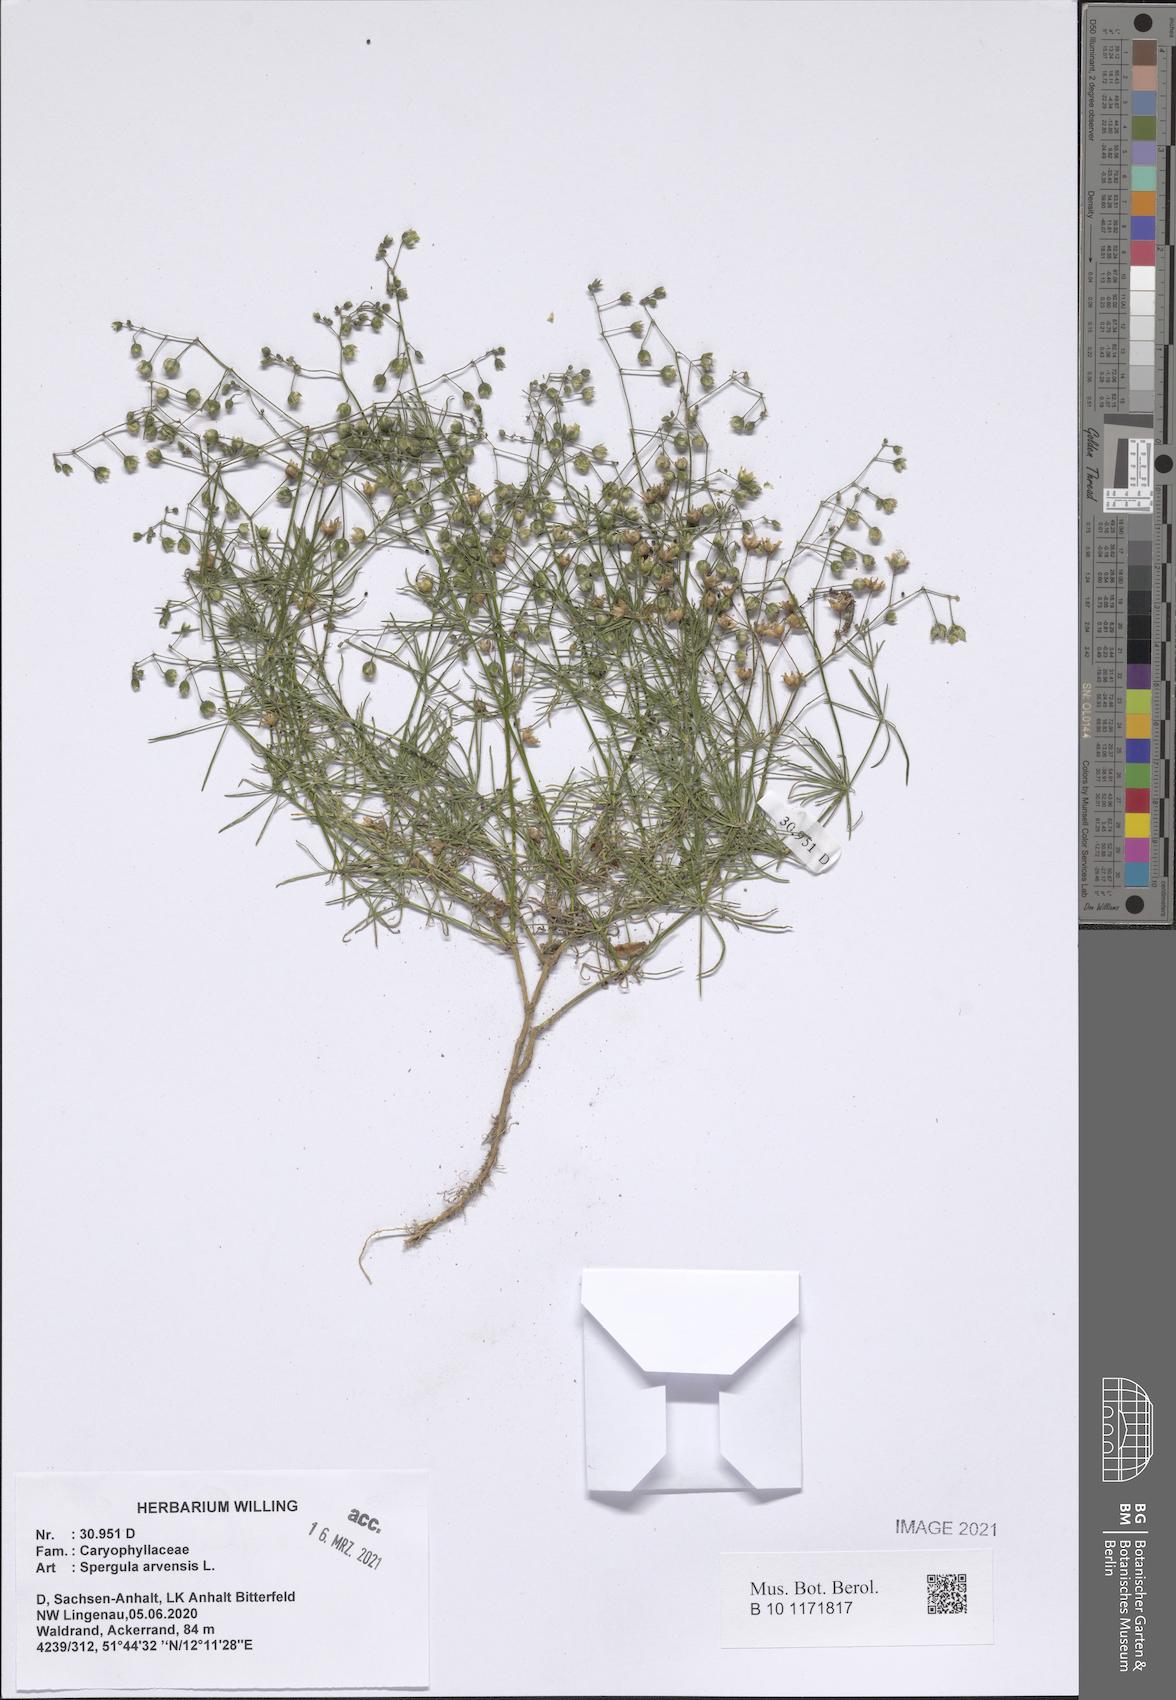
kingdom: Plantae
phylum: Tracheophyta
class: Magnoliopsida
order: Caryophyllales
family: Caryophyllaceae
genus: Spergula
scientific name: Spergula arvensis
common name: Corn spurrey
